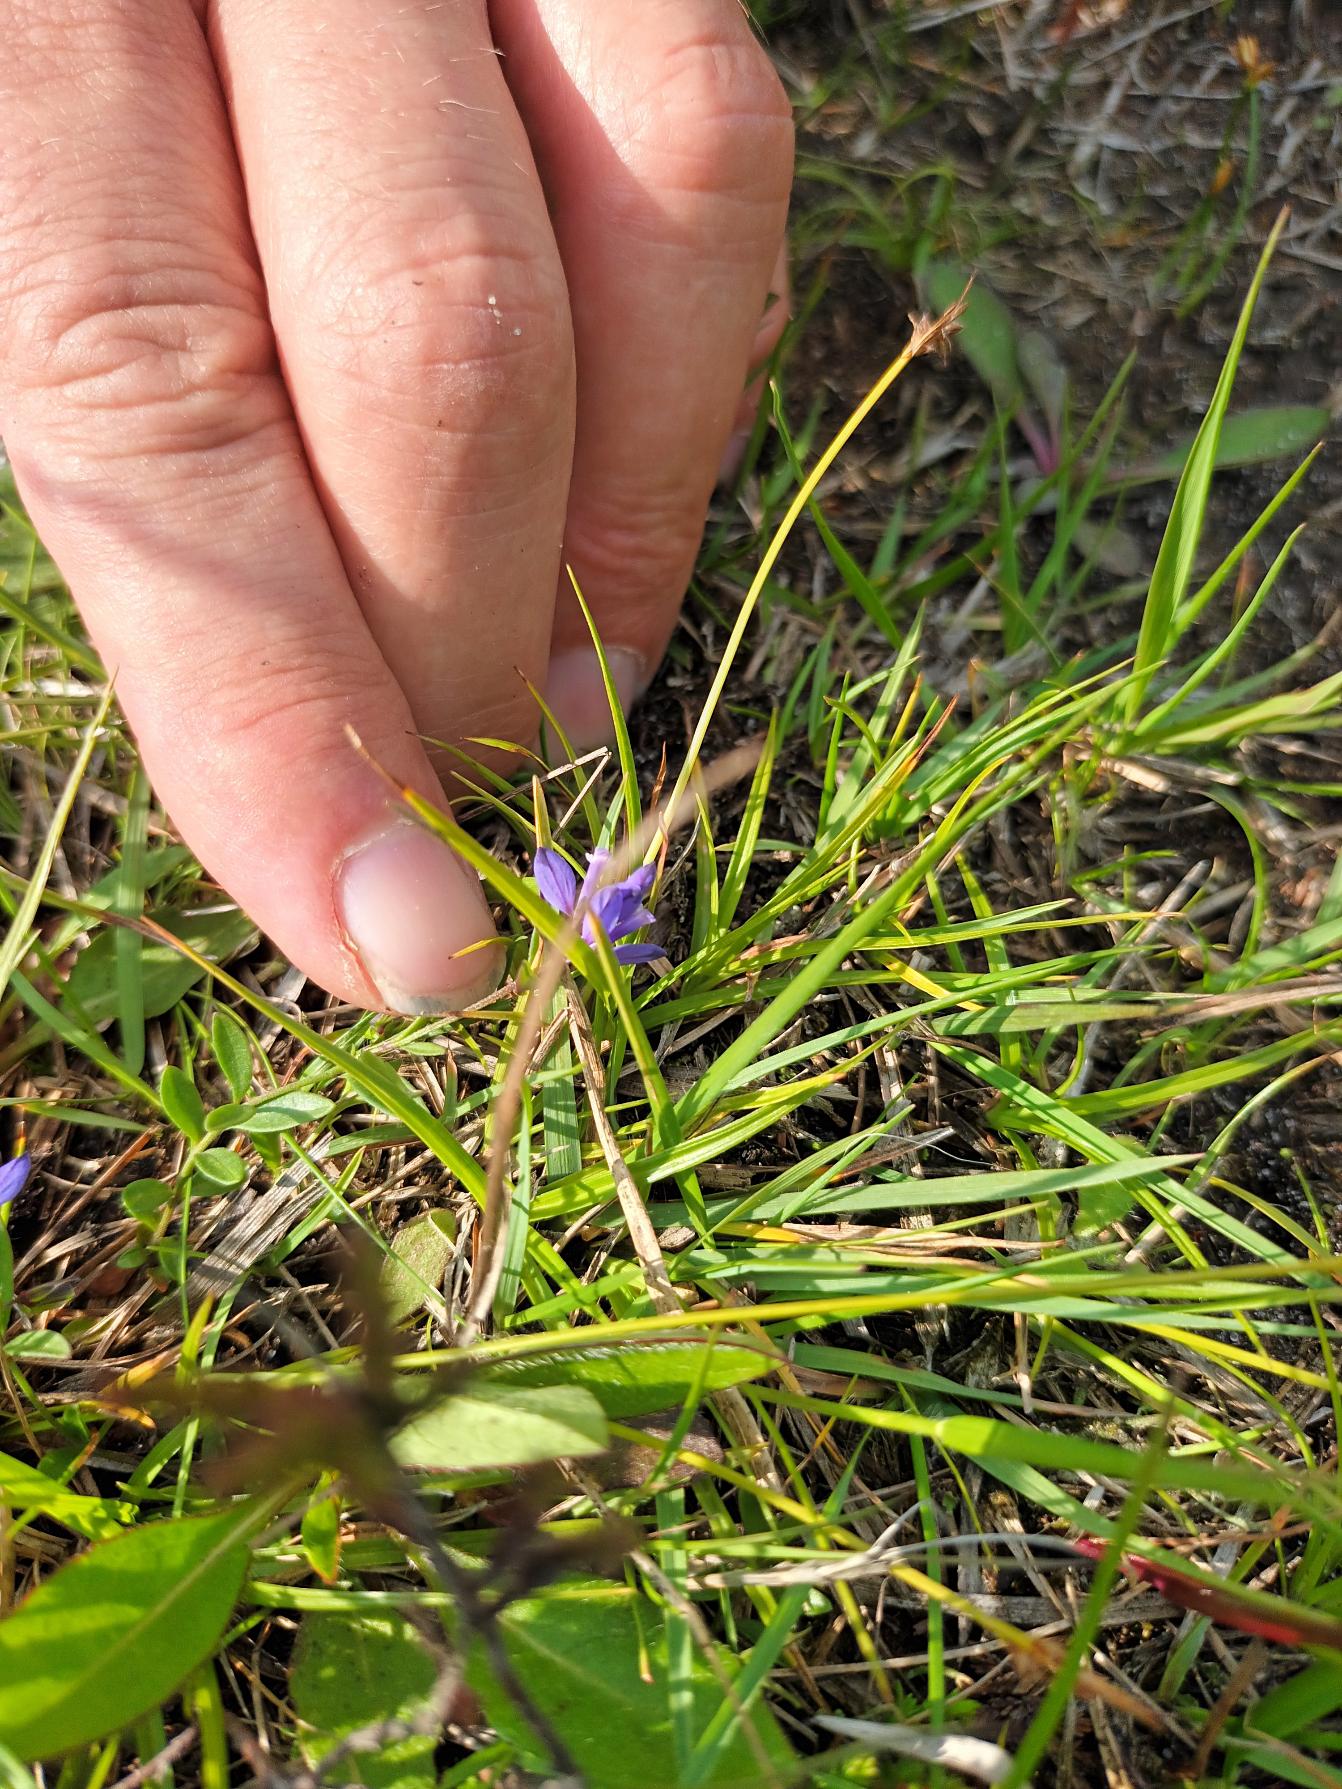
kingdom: Plantae
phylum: Tracheophyta
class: Magnoliopsida
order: Fabales
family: Polygalaceae
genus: Polygala
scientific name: Polygala serpyllifolia
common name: Spæd mælkeurt
